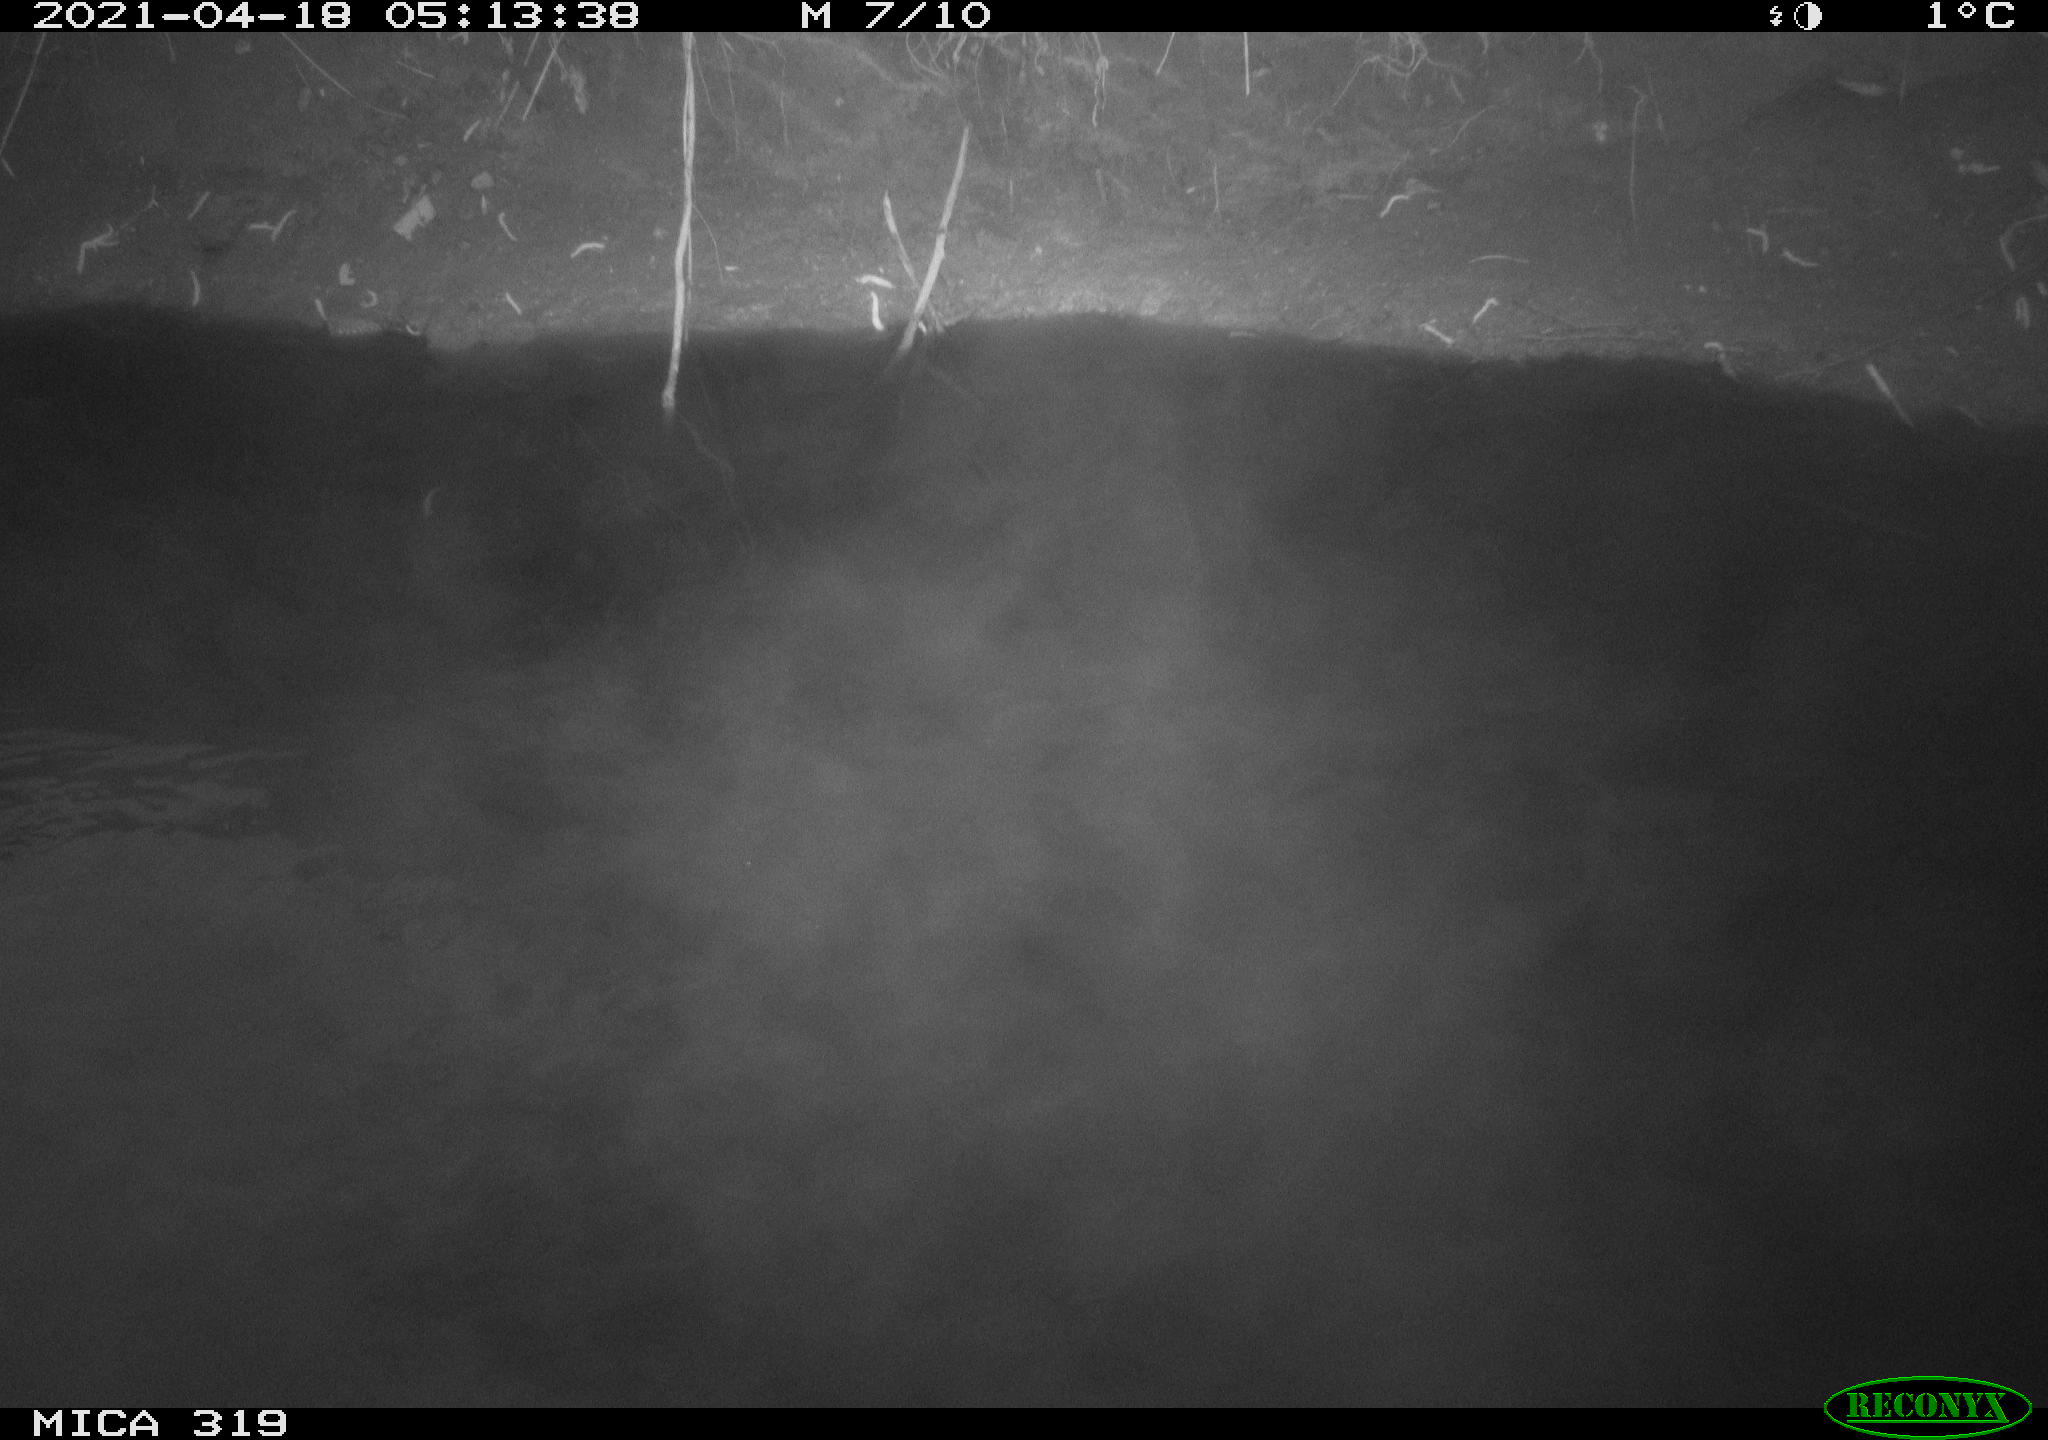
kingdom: Animalia
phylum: Chordata
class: Aves
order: Gruiformes
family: Rallidae
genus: Gallinula
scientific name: Gallinula chloropus
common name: Common moorhen
